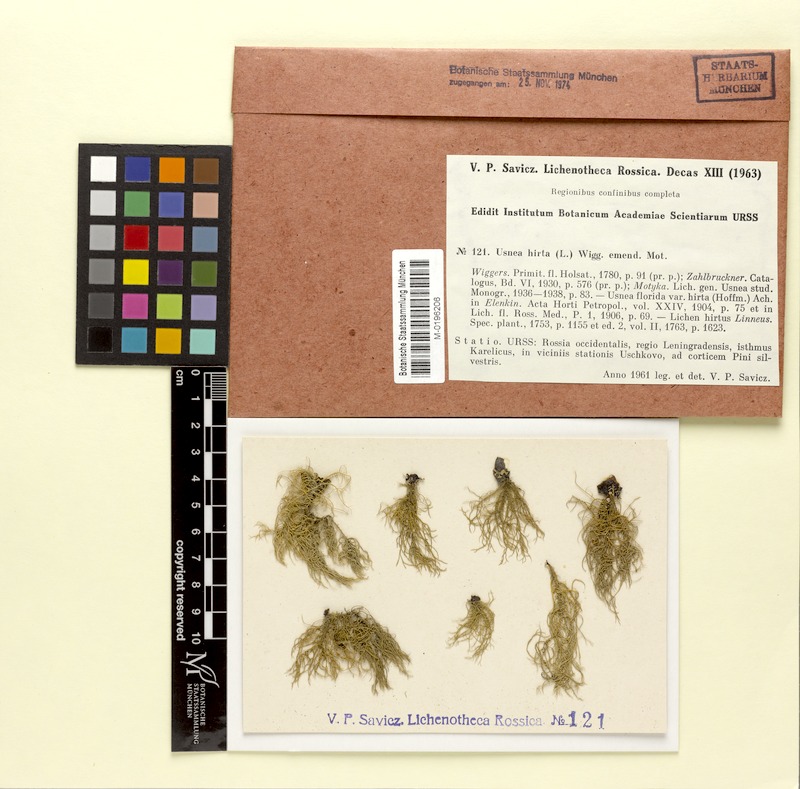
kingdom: Fungi
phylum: Ascomycota
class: Lecanoromycetes
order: Lecanorales
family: Parmeliaceae
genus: Usnea
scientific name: Usnea hirta
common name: Bristly beard lichen
